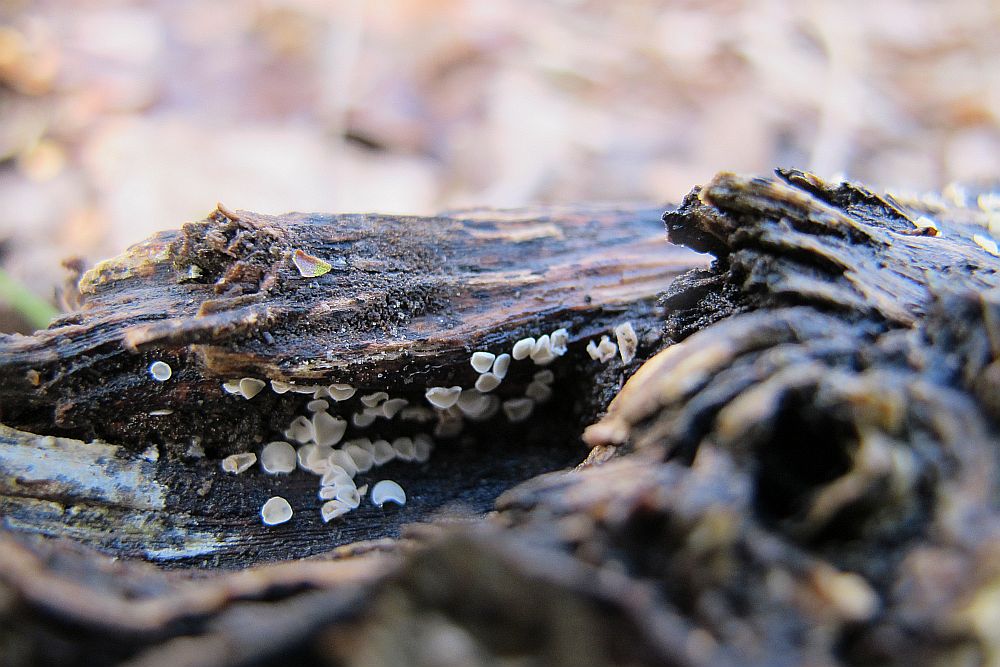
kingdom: Fungi
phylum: Ascomycota
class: Leotiomycetes
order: Helotiales
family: Lachnaceae
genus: Lachnum
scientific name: Lachnum
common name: frynseskive
